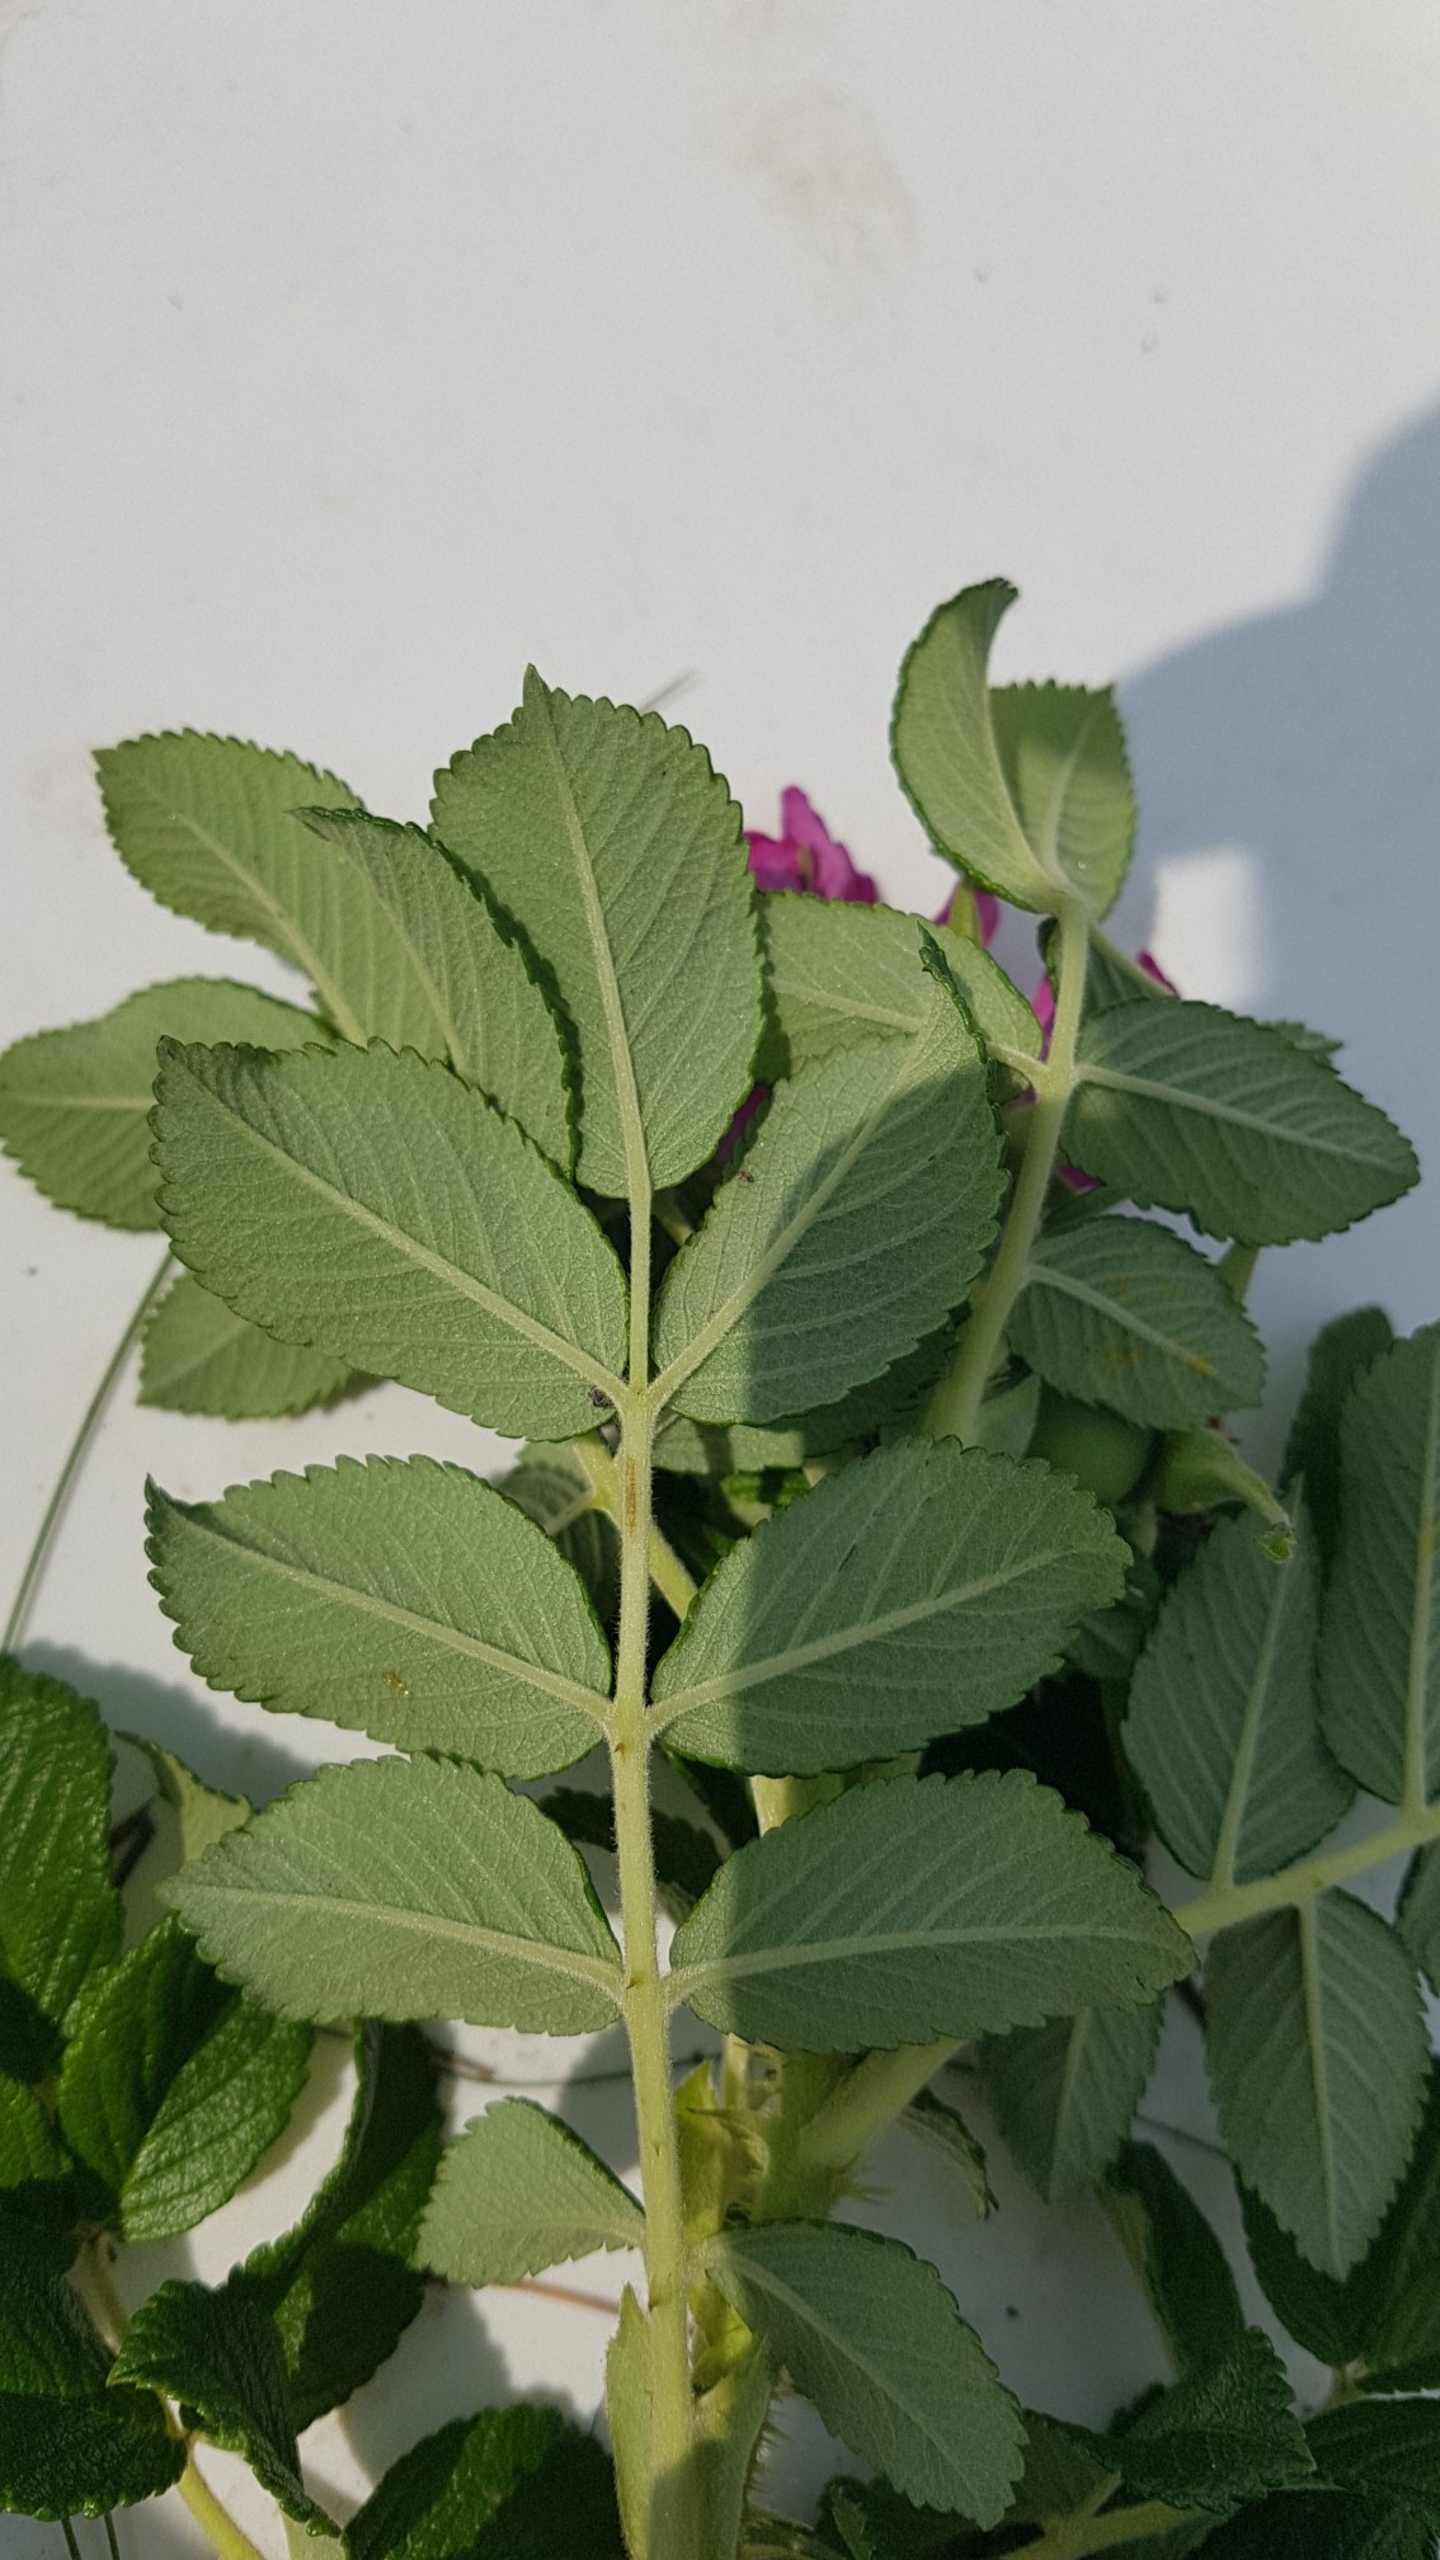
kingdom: Plantae
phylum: Tracheophyta
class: Magnoliopsida
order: Rosales
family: Rosaceae
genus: Rosa
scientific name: Rosa rugosa
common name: Rynket rose
